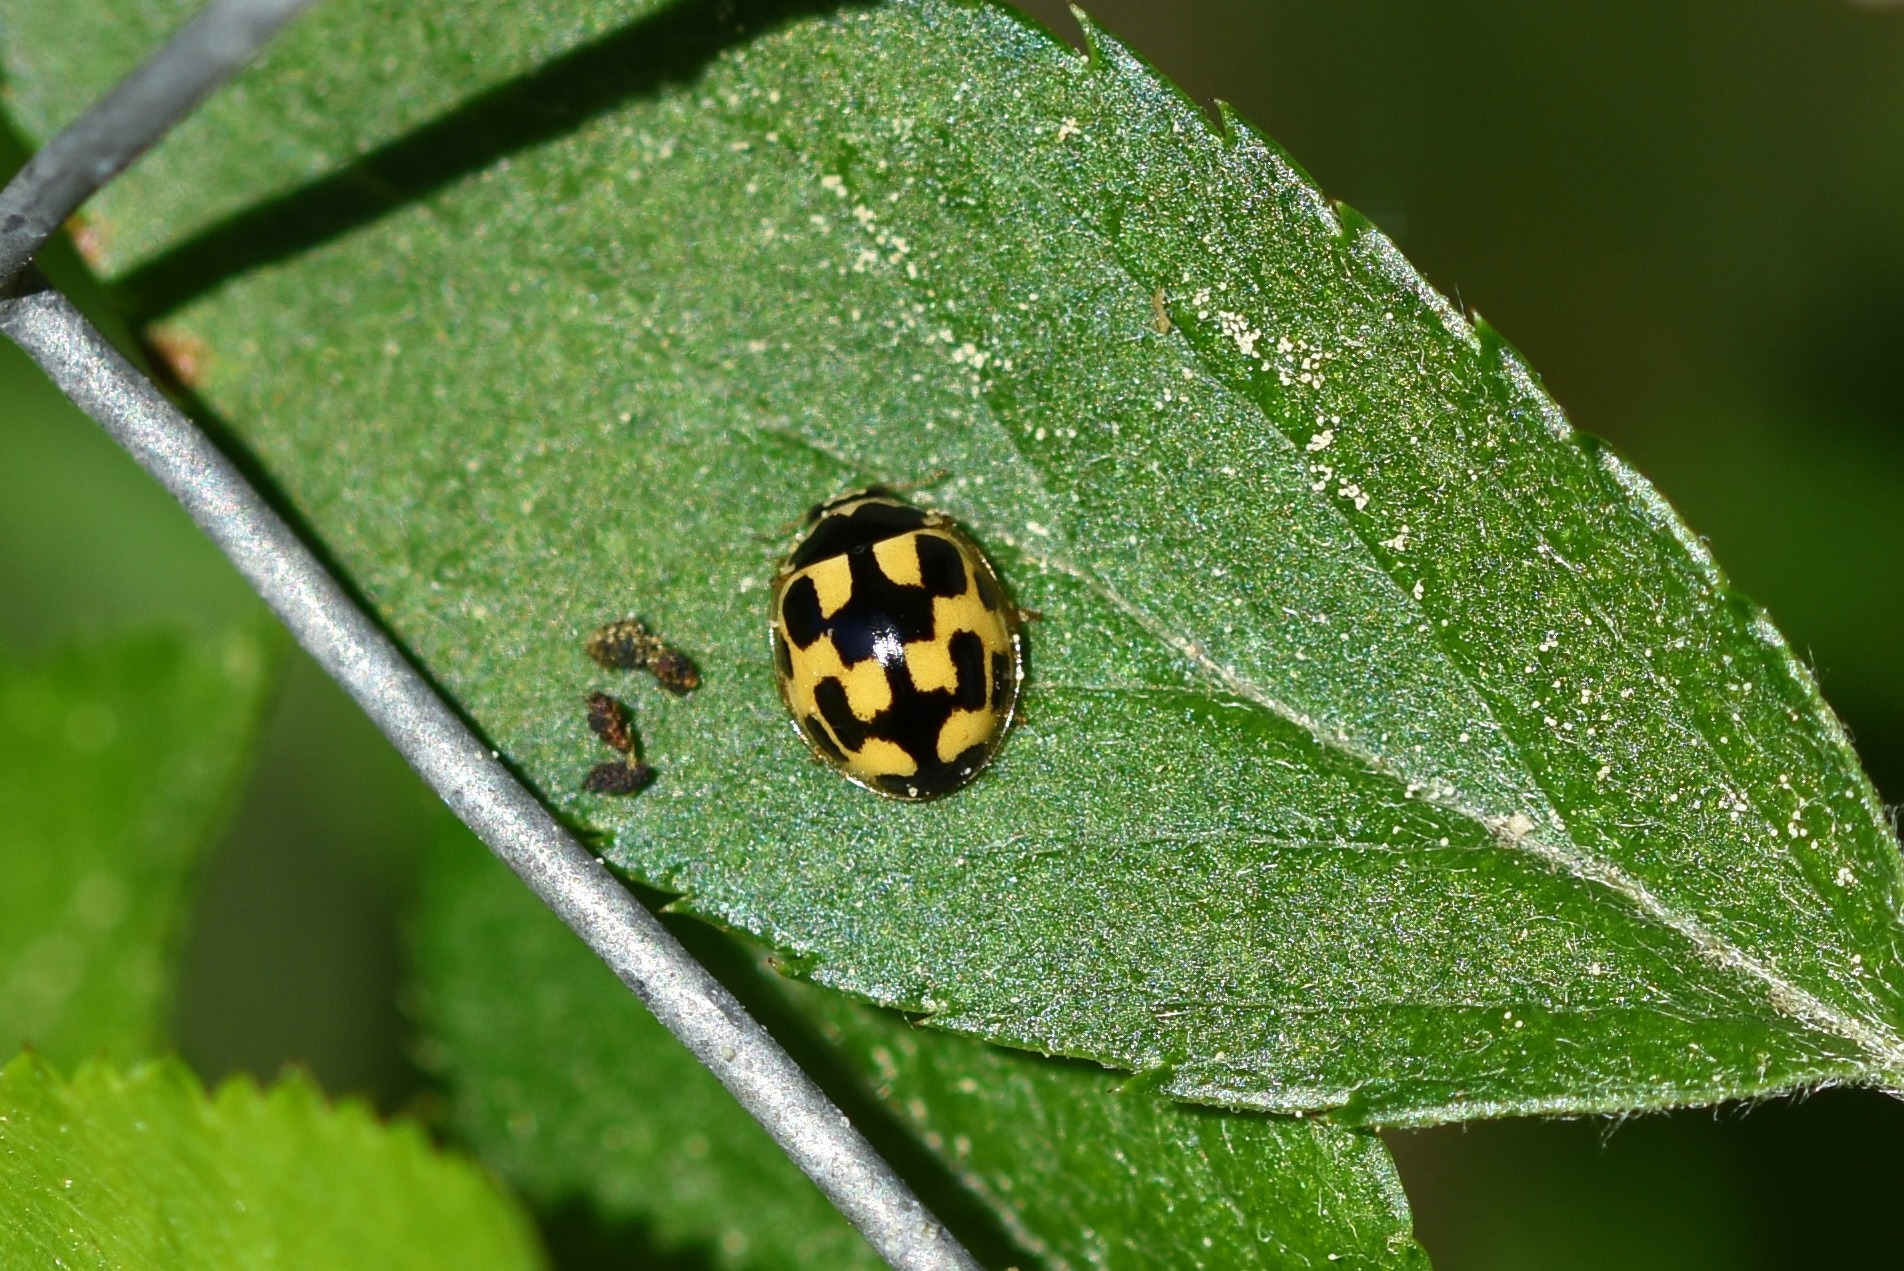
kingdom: Animalia
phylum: Arthropoda
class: Insecta
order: Coleoptera
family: Coccinellidae
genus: Propylaea
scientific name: Propylaea quatuordecimpunctata
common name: Skakbræt
